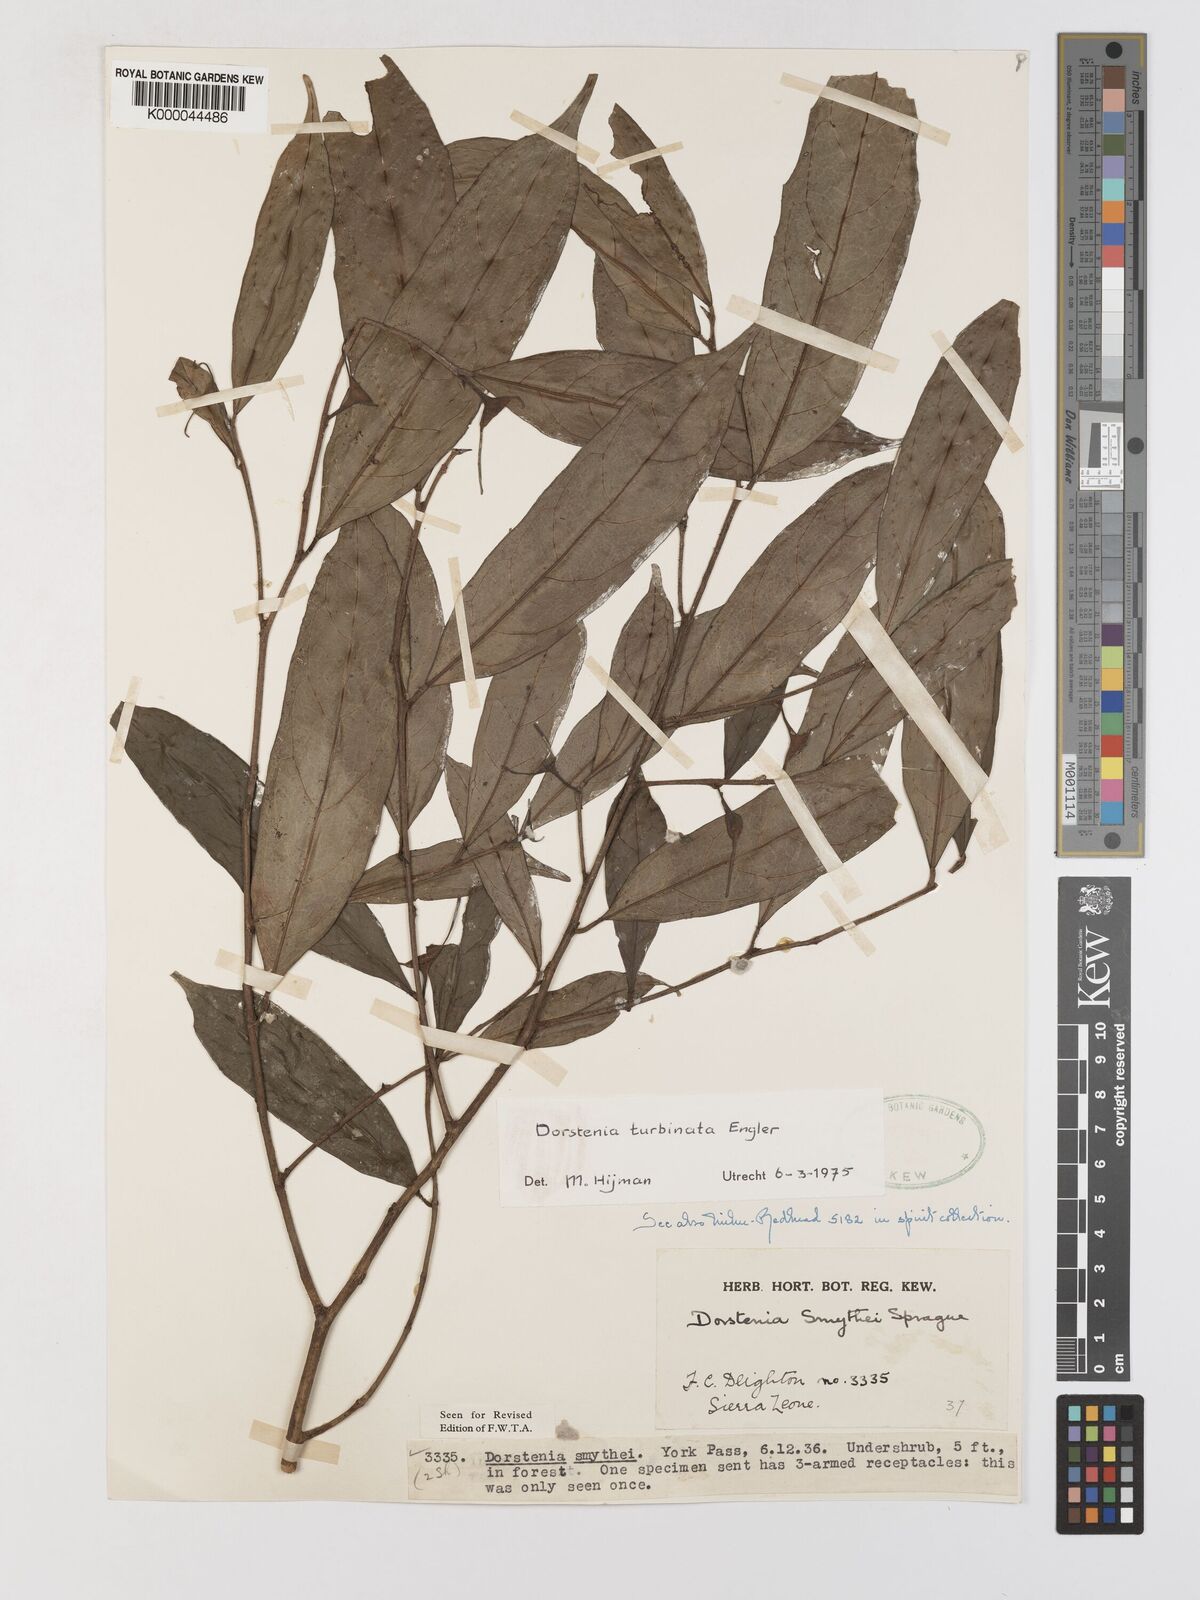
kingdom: Plantae
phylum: Tracheophyta
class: Magnoliopsida
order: Rosales
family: Moraceae
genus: Hijmania
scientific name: Hijmania turbinata
